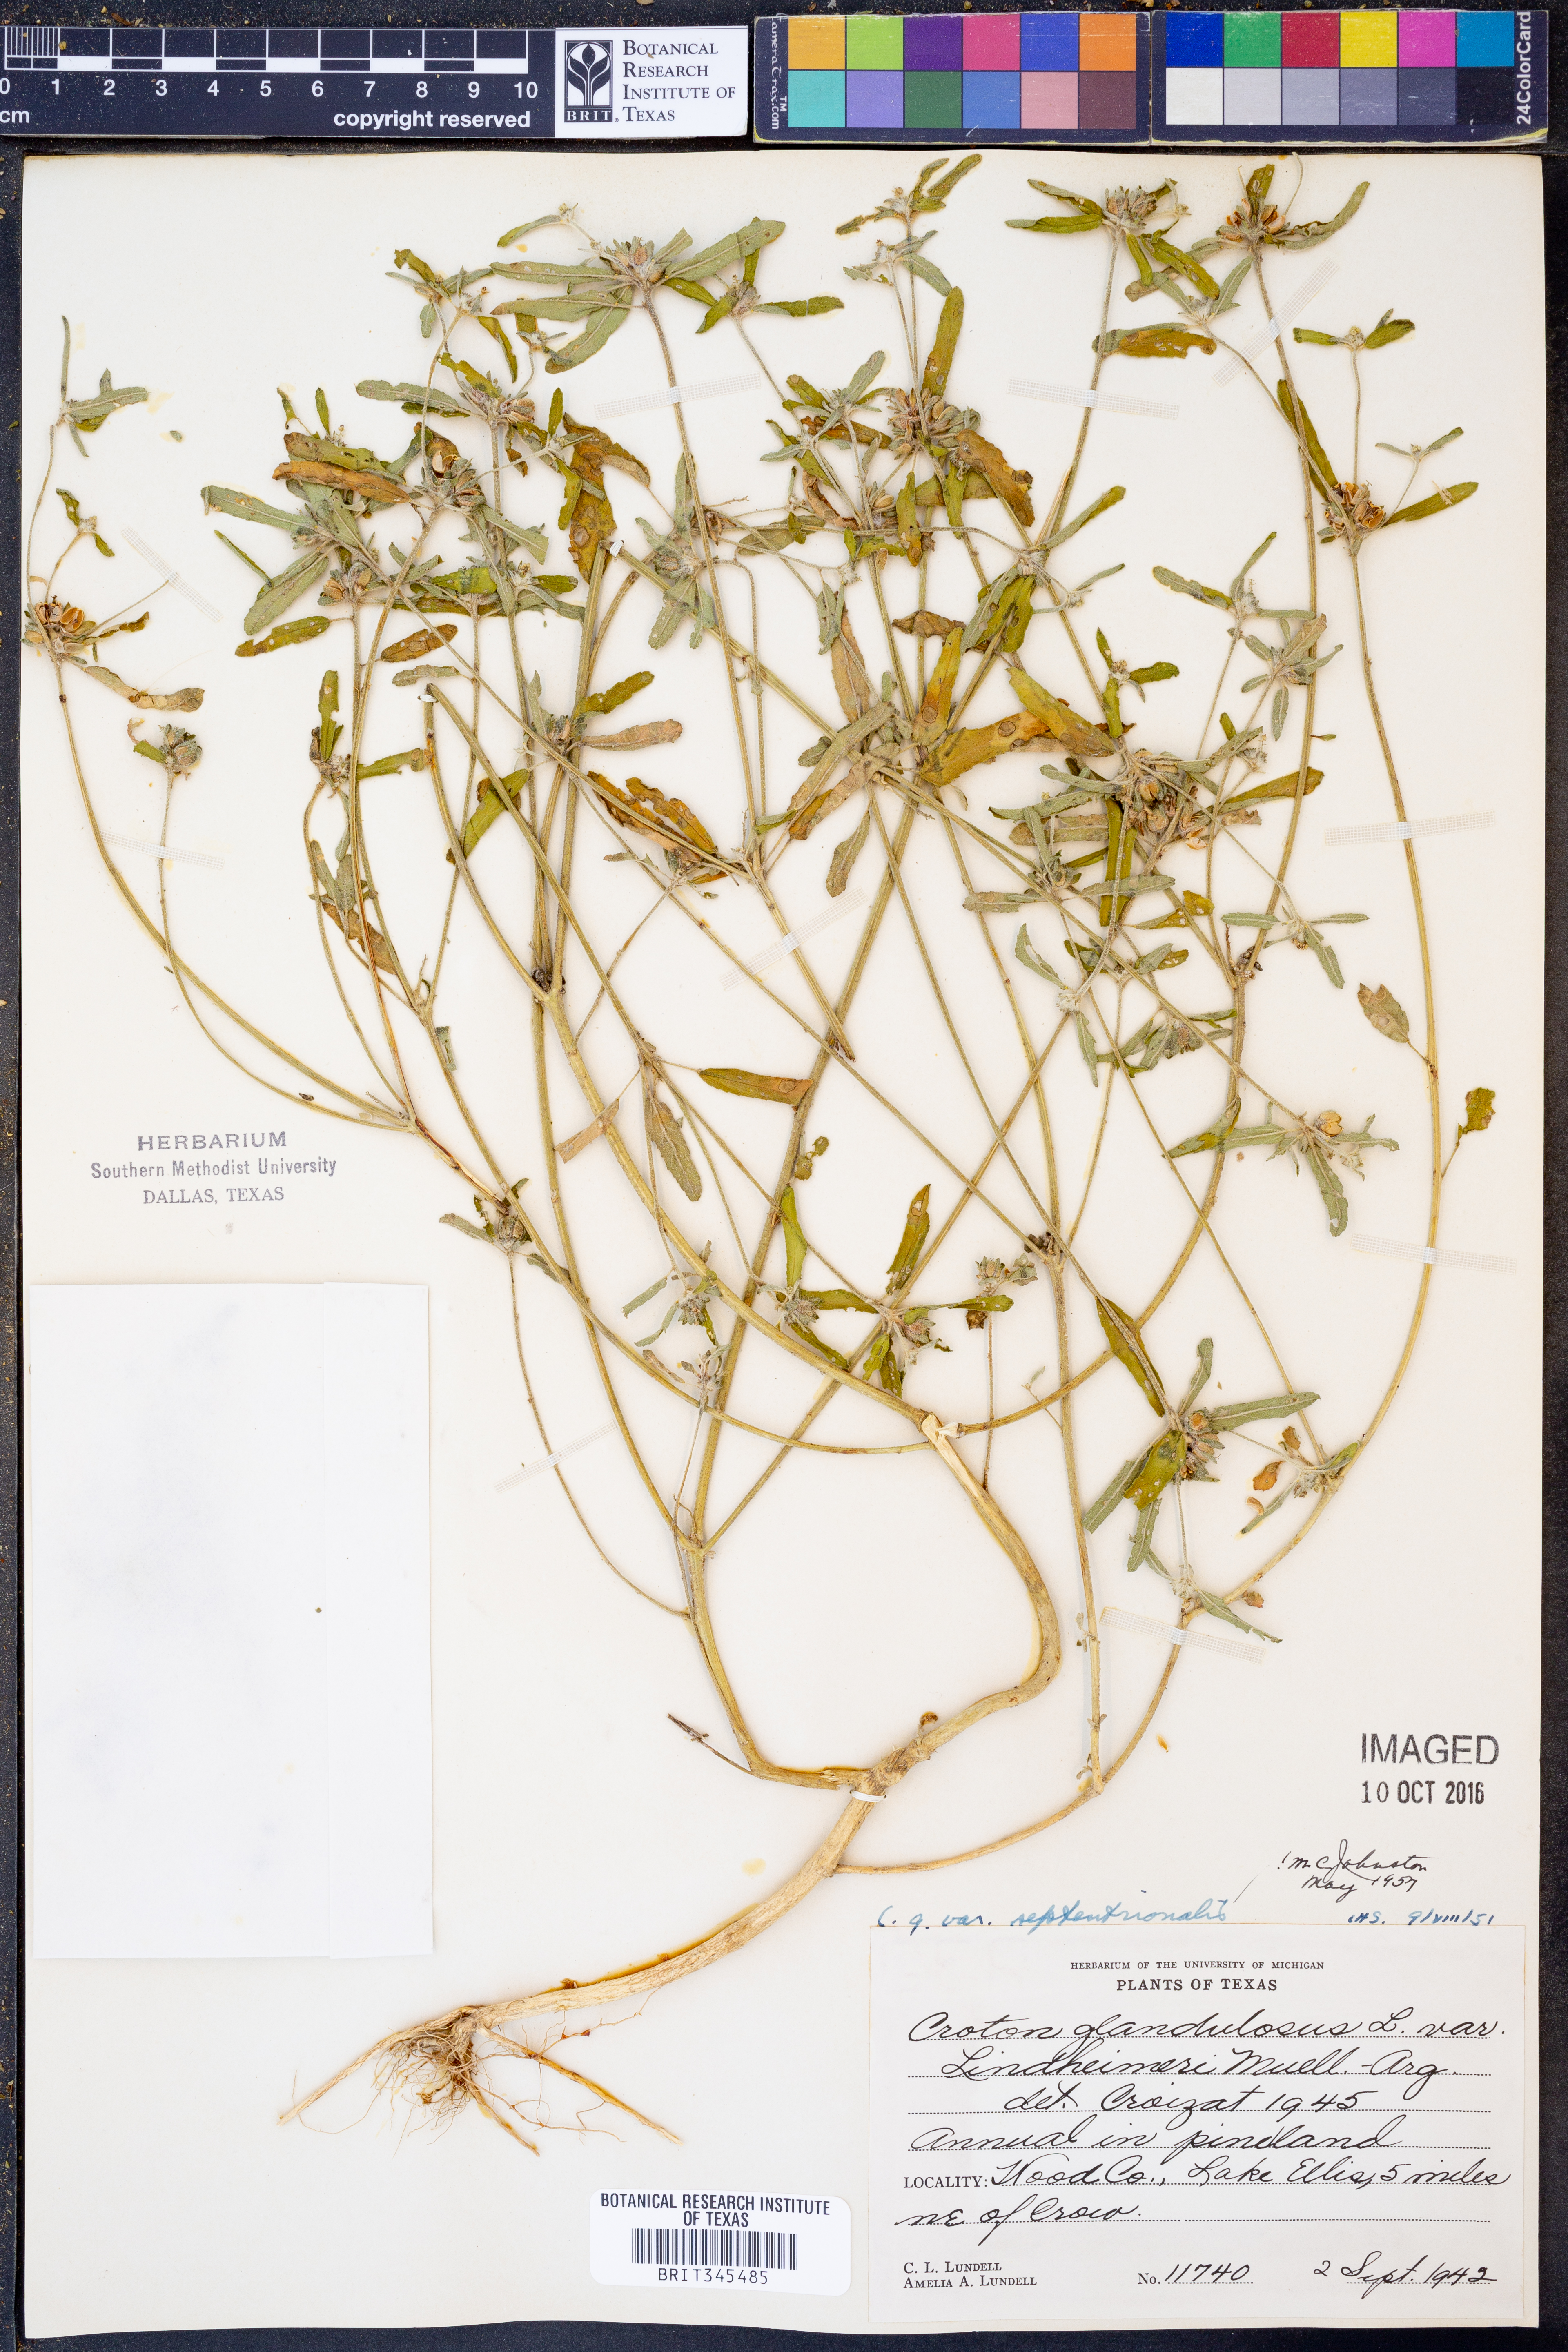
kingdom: Plantae
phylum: Tracheophyta
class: Magnoliopsida
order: Malpighiales
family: Euphorbiaceae
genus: Croton
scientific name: Croton glandulosus
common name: Tropic croton
